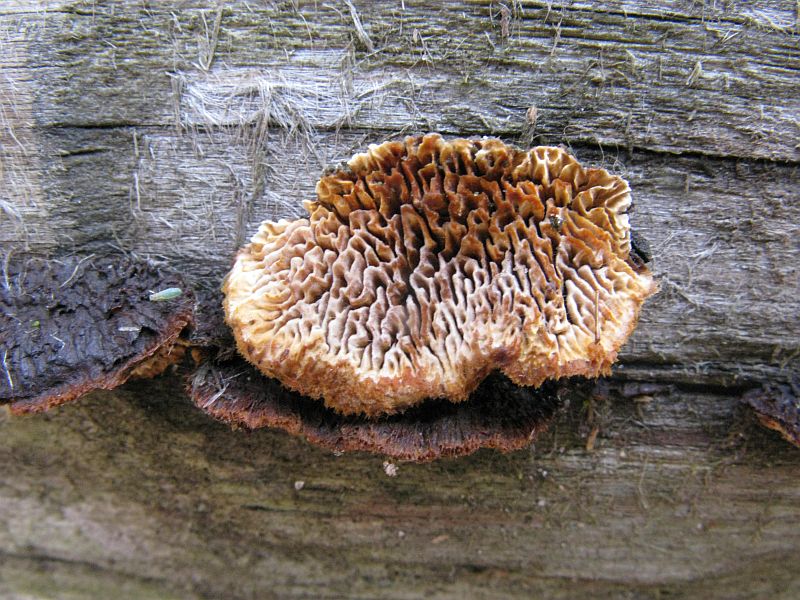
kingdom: Fungi
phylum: Basidiomycota
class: Agaricomycetes
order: Gloeophyllales
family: Gloeophyllaceae
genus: Gloeophyllum
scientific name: Gloeophyllum sepiarium
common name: fyrre-korkhat
